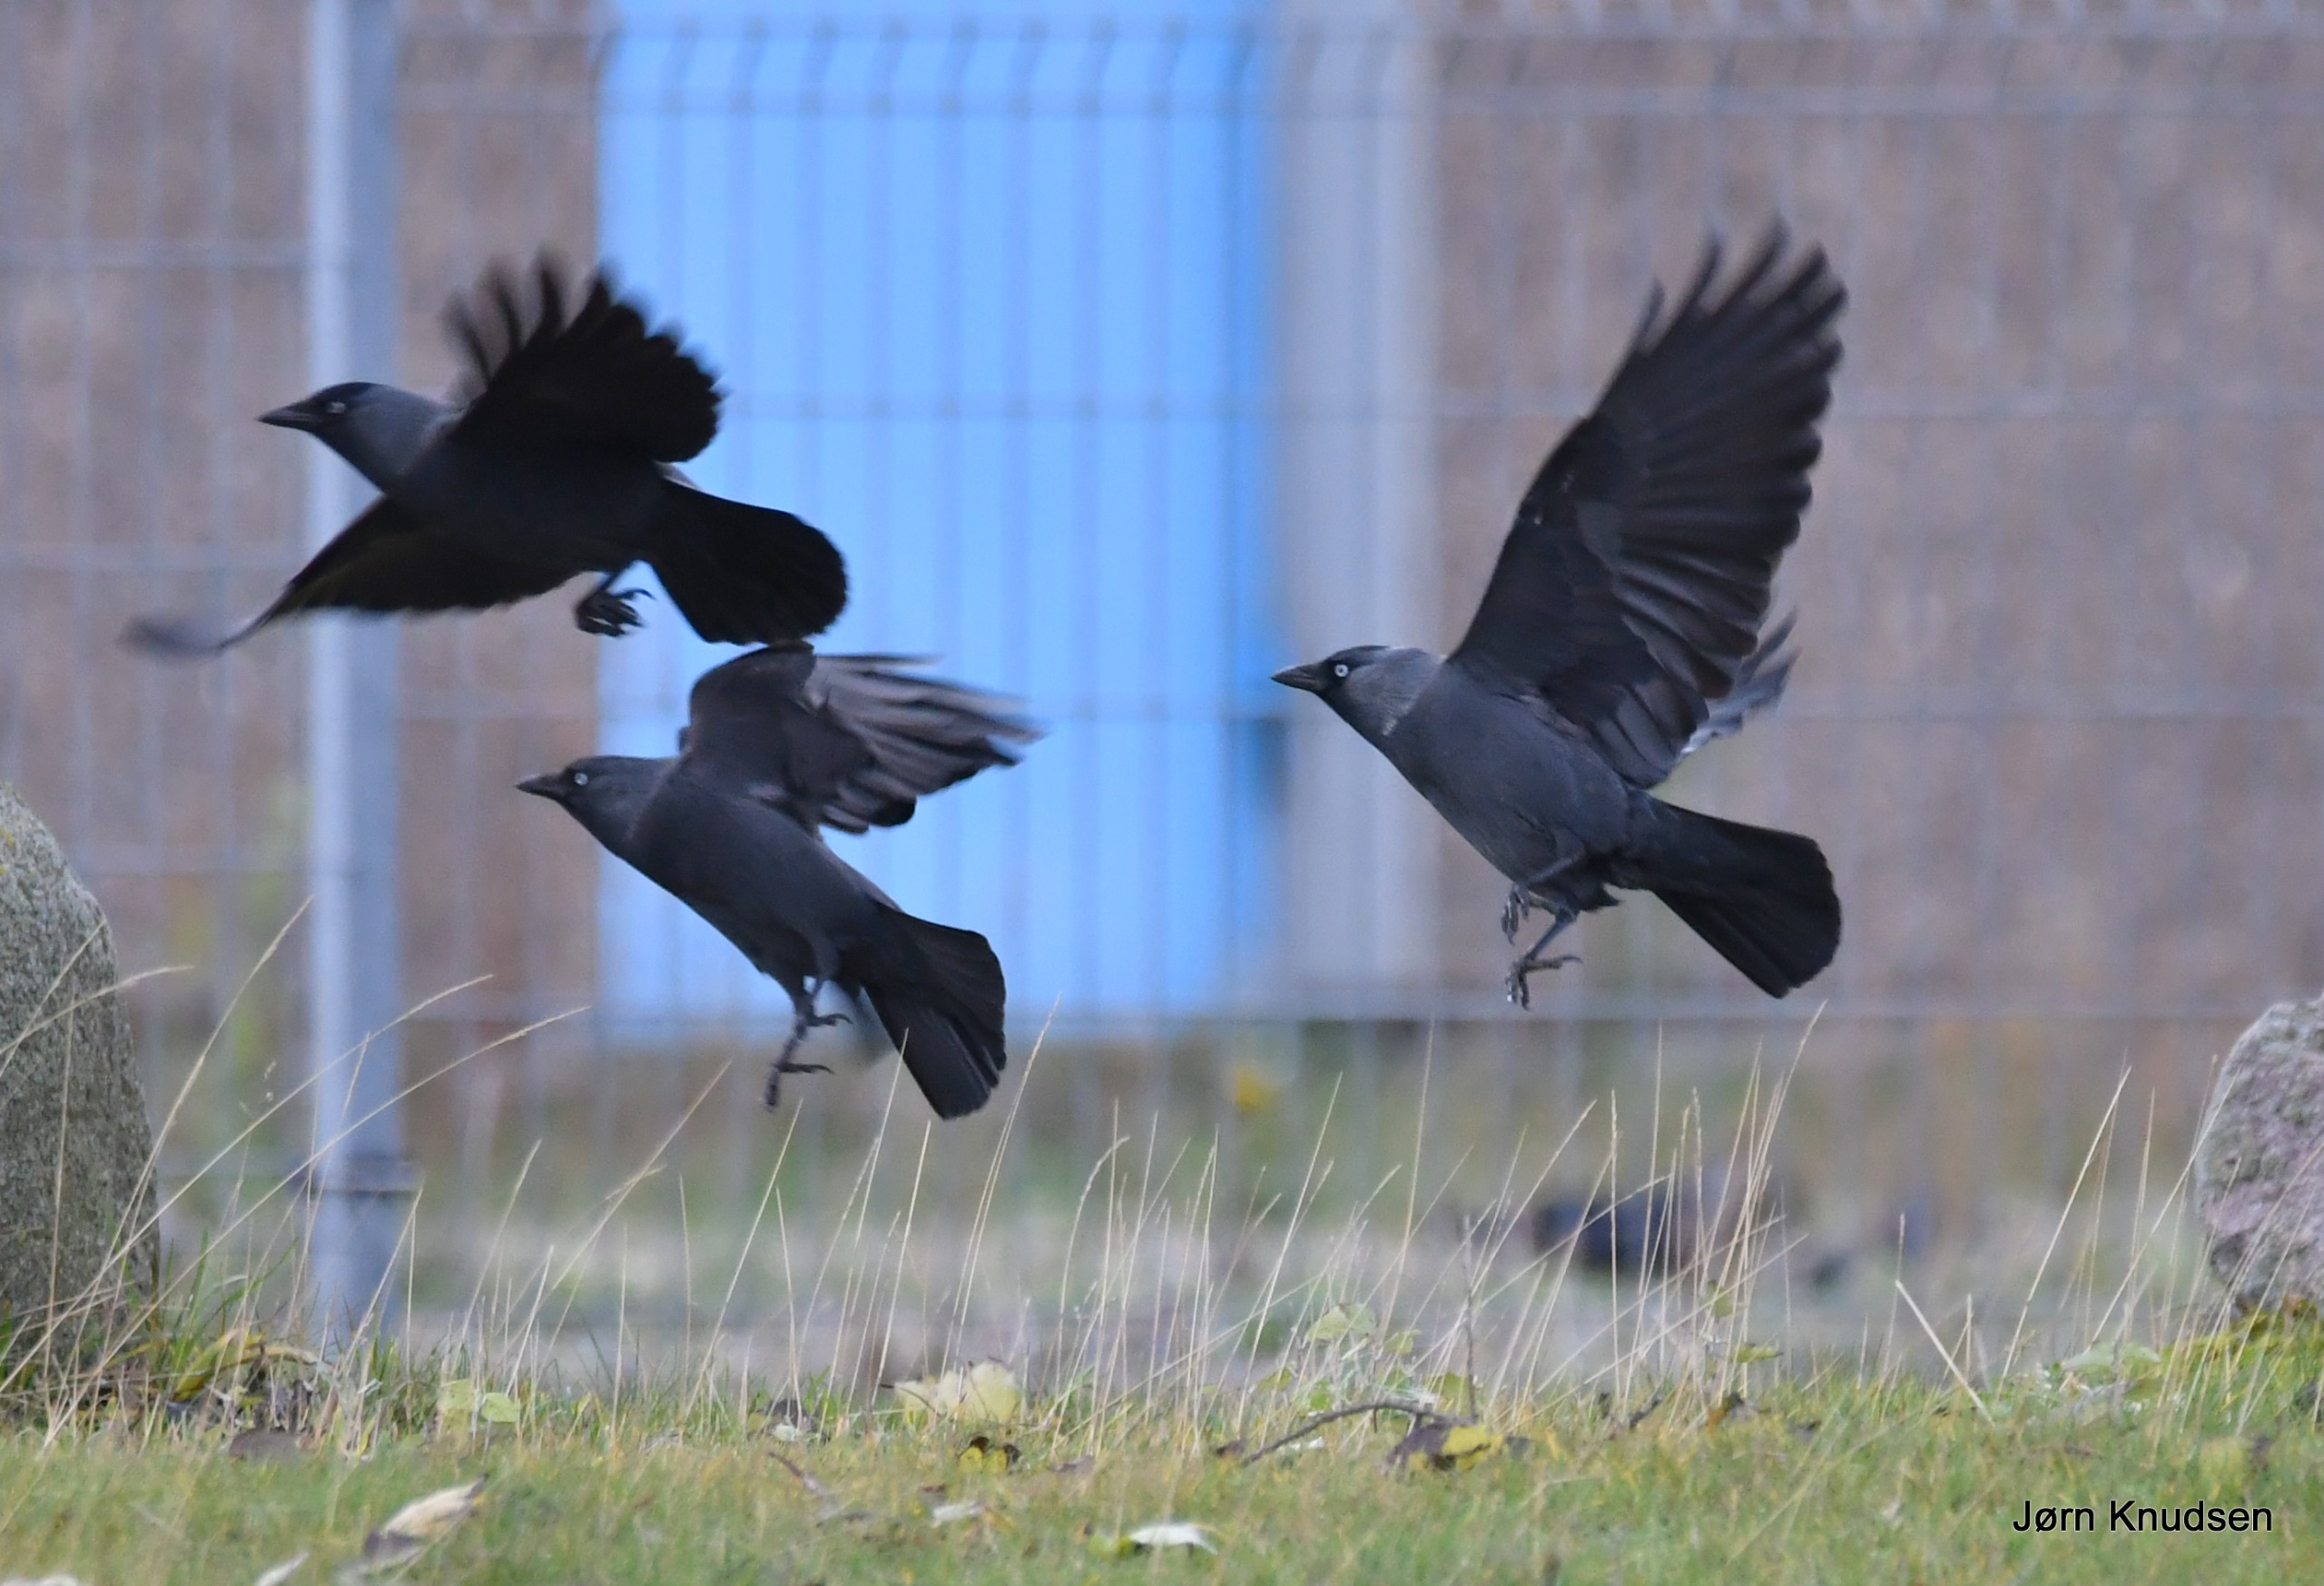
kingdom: Animalia
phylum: Chordata
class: Aves
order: Passeriformes
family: Corvidae
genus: Coloeus
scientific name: Coloeus monedula
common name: Allike
